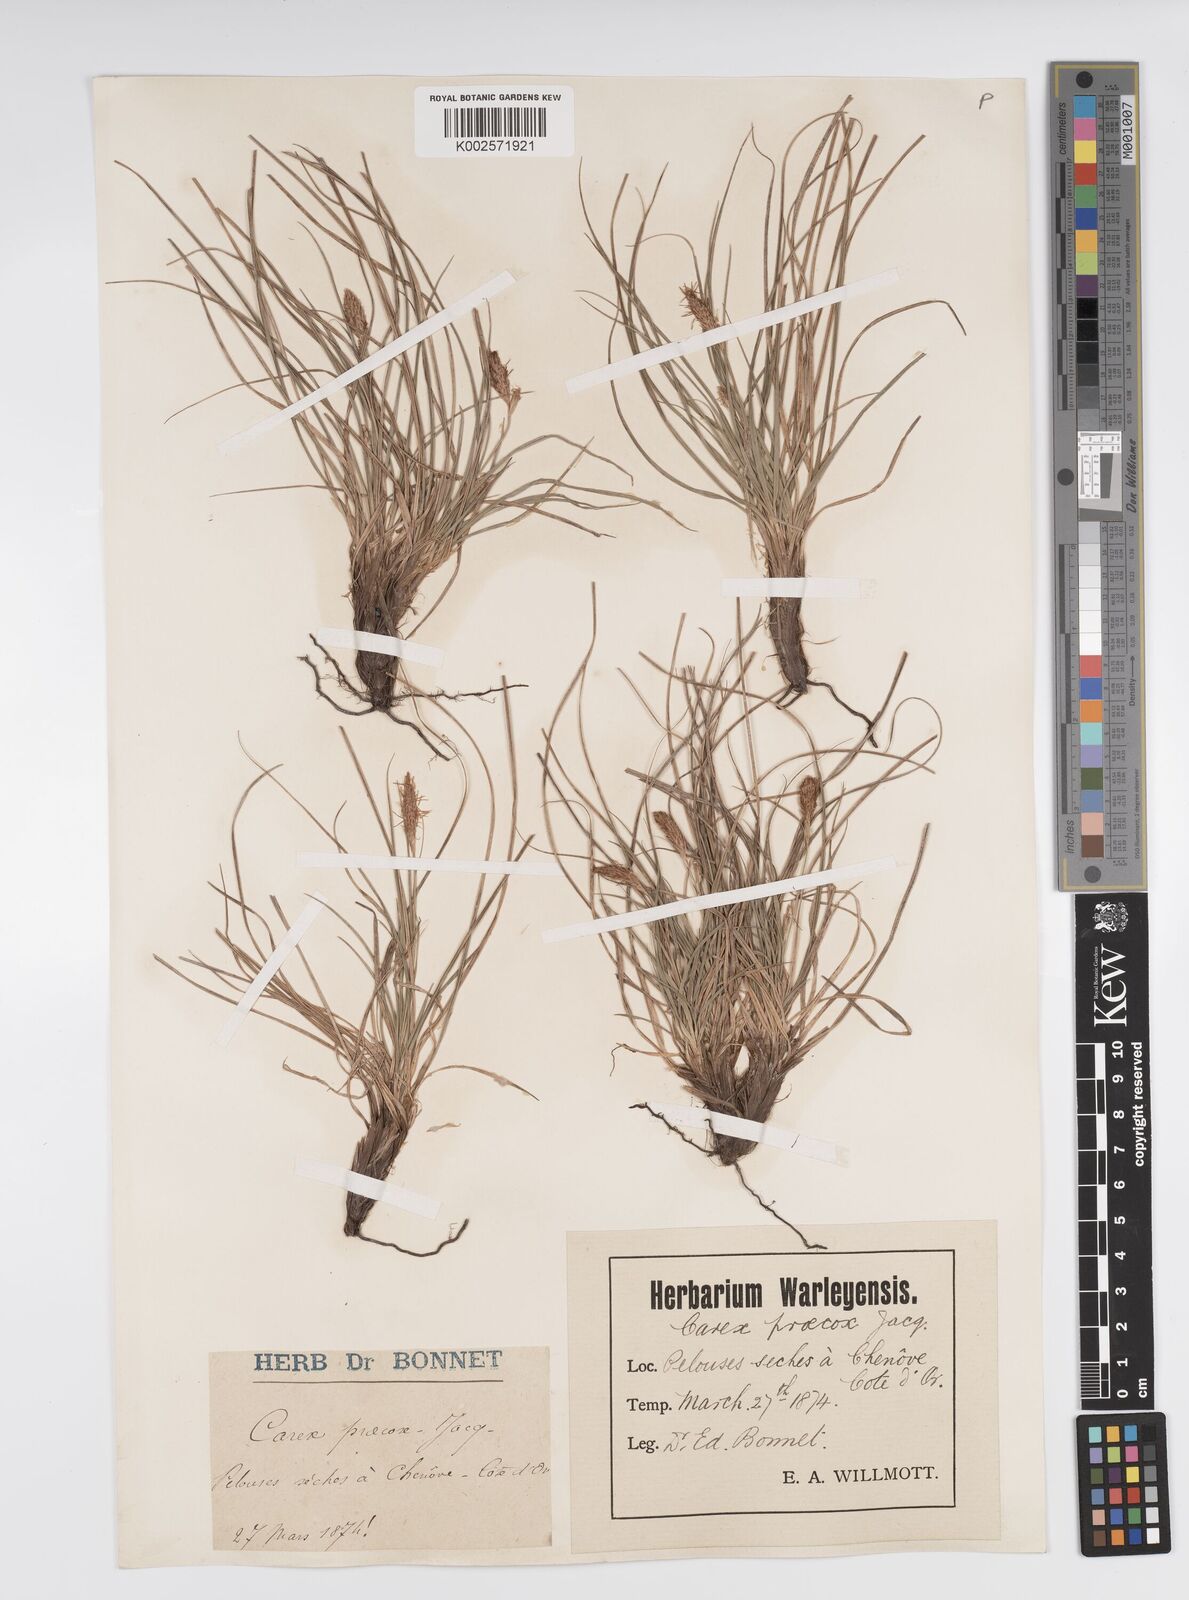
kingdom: Plantae
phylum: Tracheophyta
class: Liliopsida
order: Poales
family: Cyperaceae
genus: Carex
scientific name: Carex halleriana
